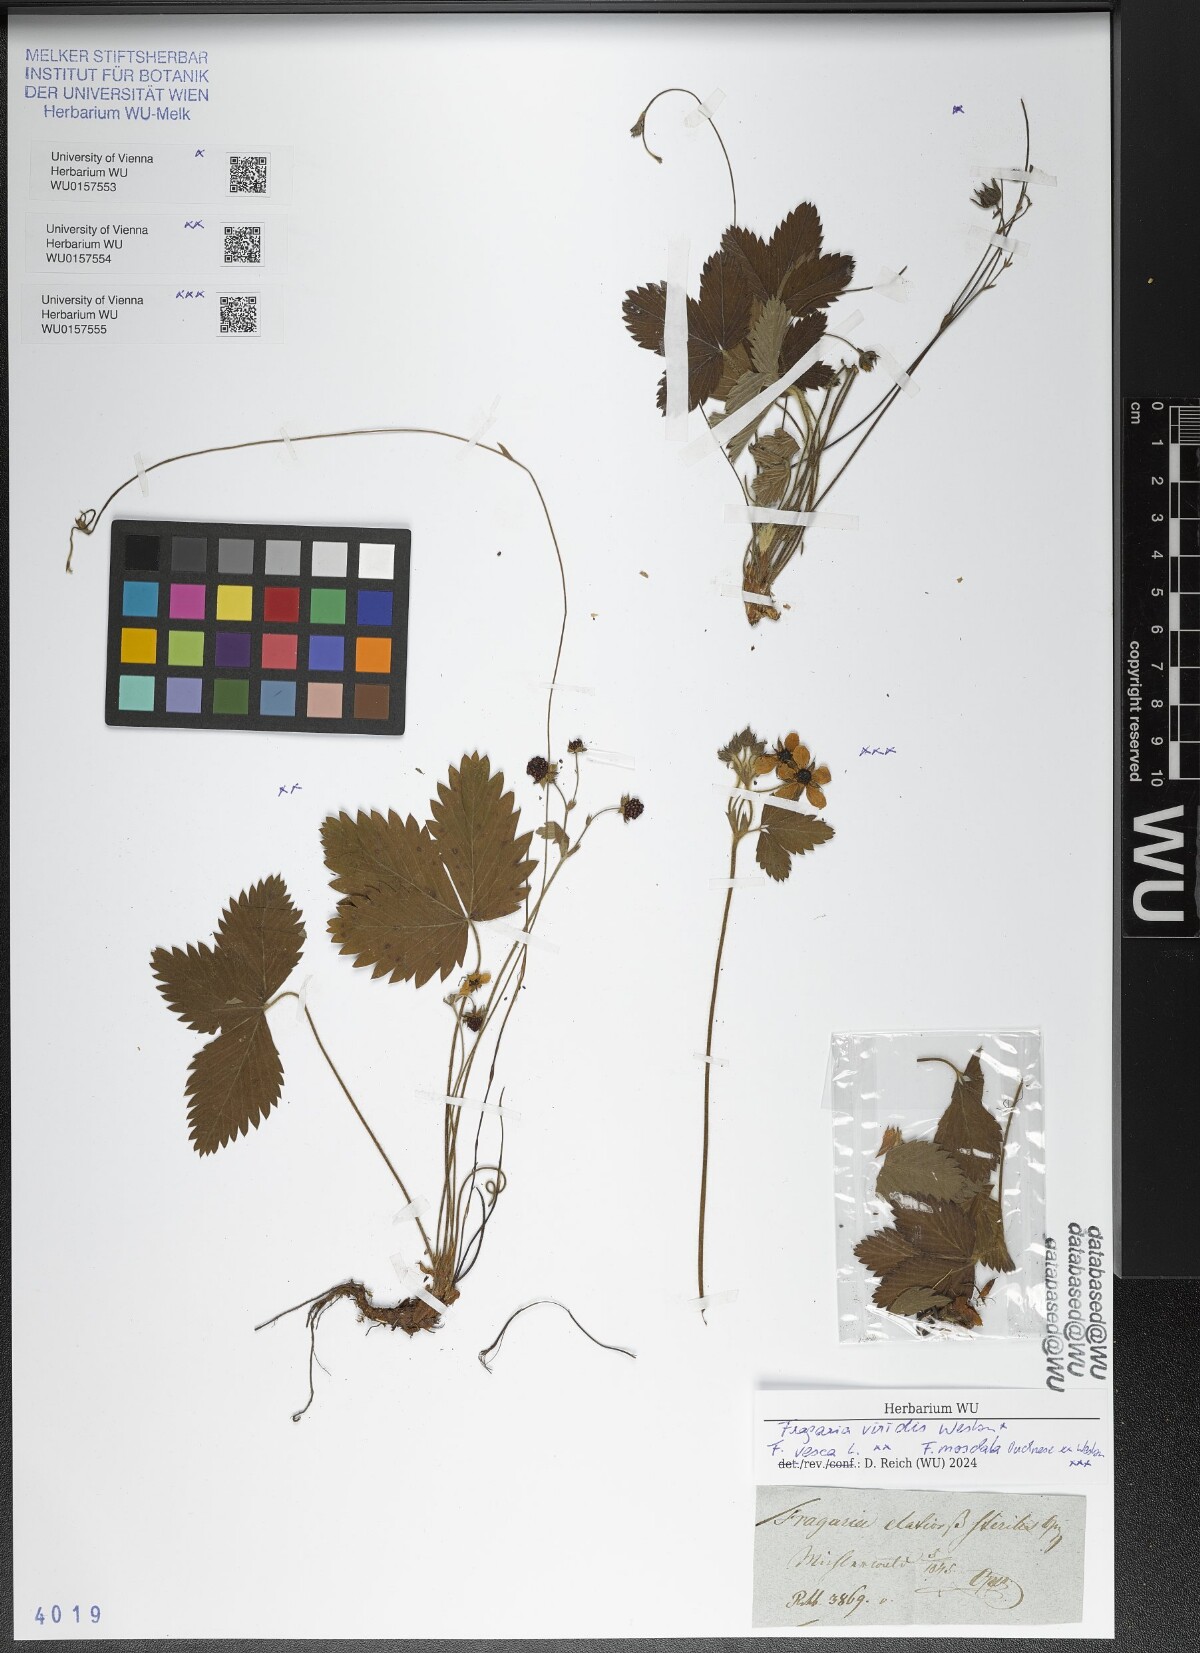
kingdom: Plantae
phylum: Tracheophyta
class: Magnoliopsida
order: Rosales
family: Rosaceae
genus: Fragaria
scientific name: Fragaria viridis
